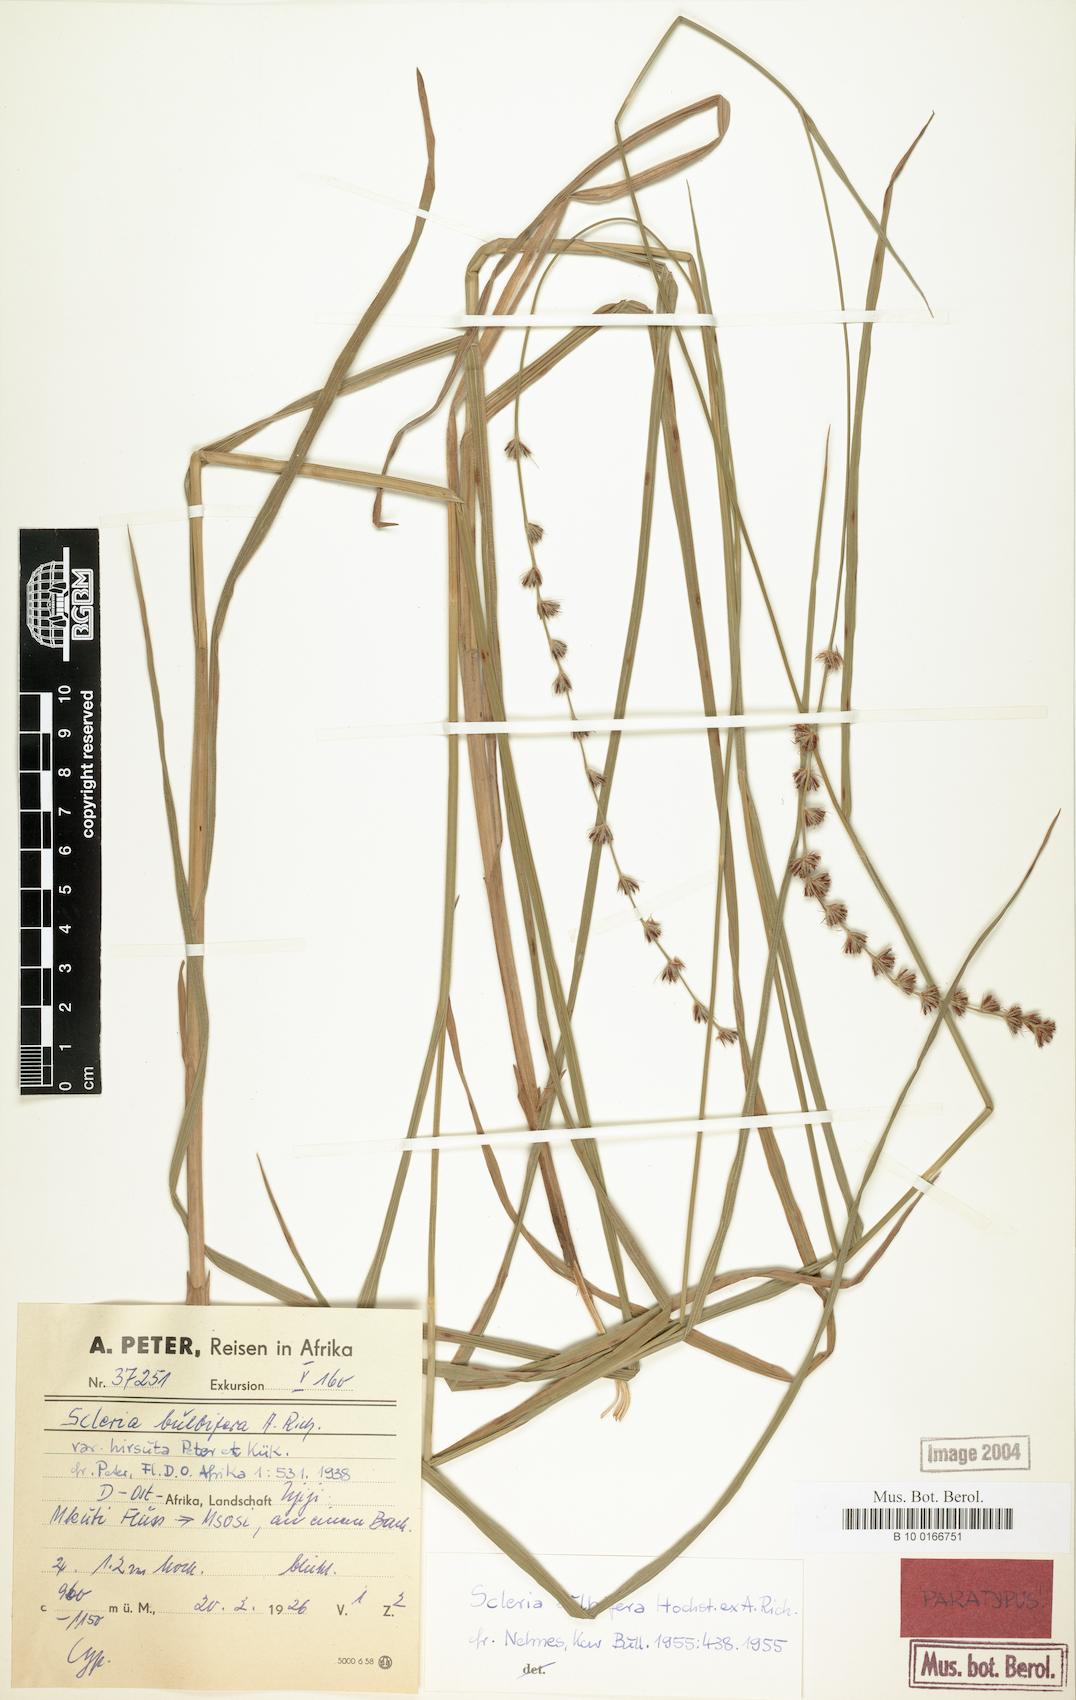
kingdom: Plantae
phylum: Tracheophyta
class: Liliopsida
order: Poales
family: Cyperaceae
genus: Scleria
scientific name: Scleria bulbifera
